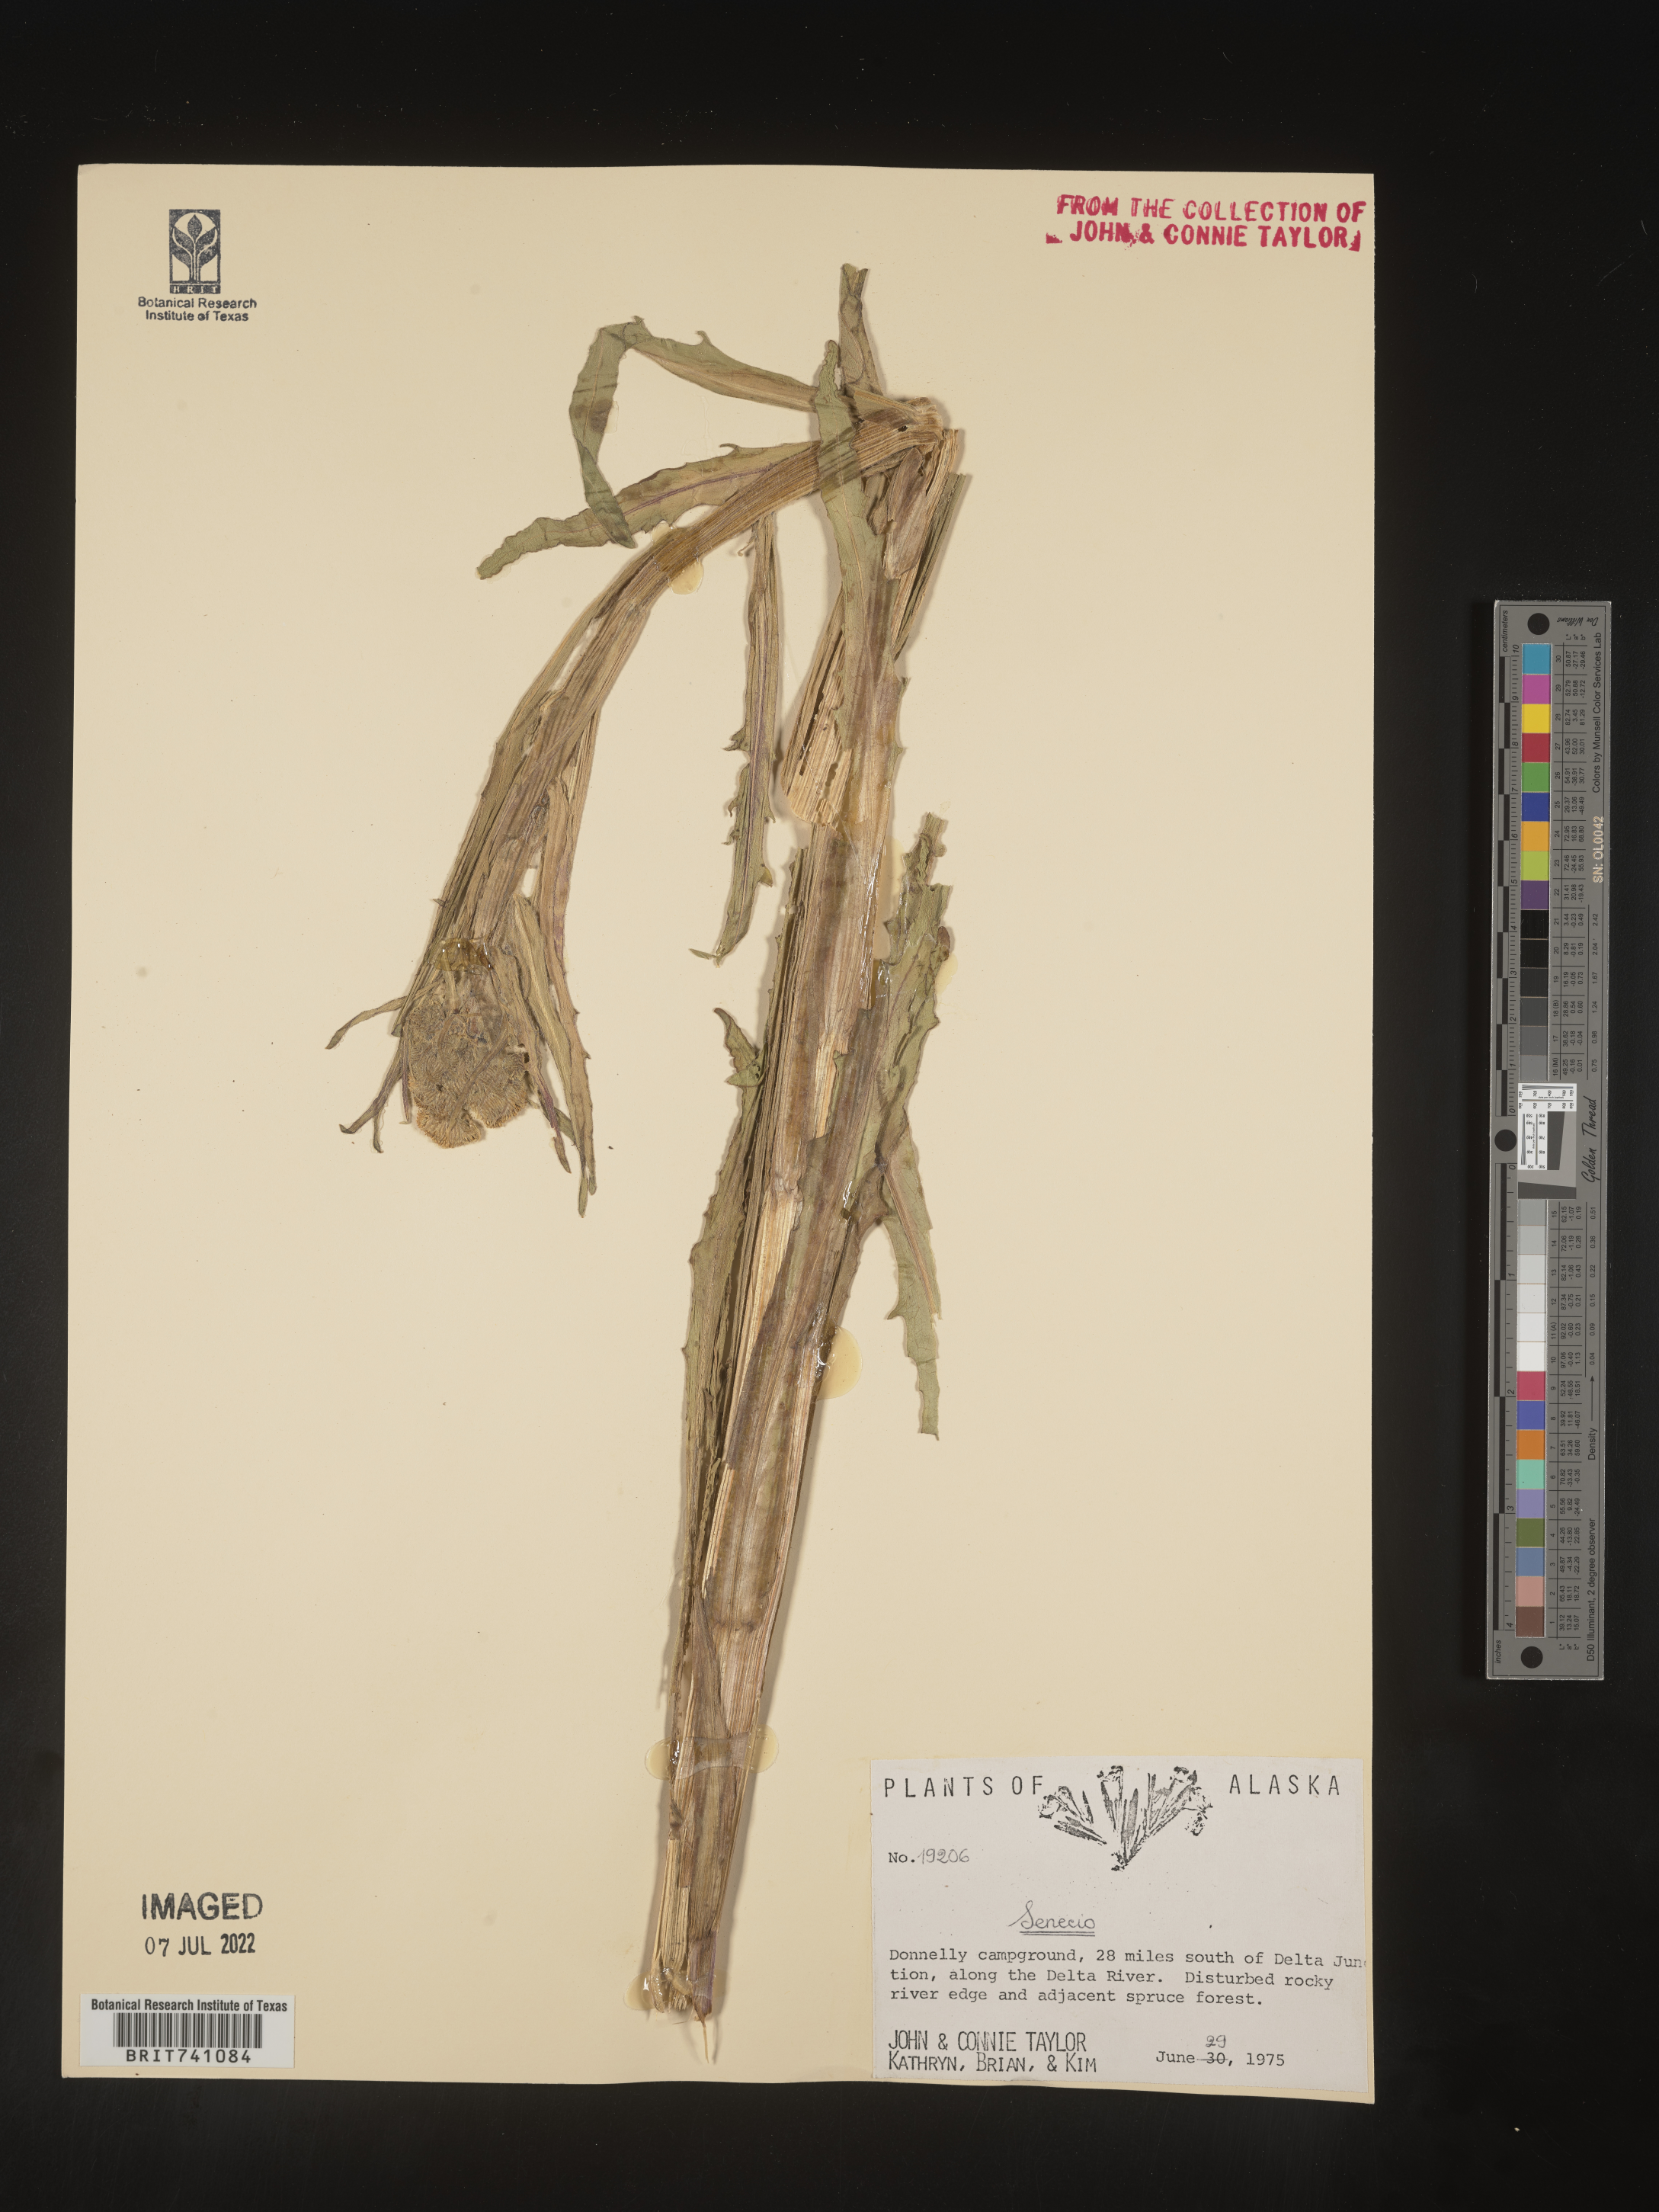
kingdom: Plantae
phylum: Tracheophyta
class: Magnoliopsida
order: Asterales
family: Asteraceae
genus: Senecio
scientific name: Senecio
